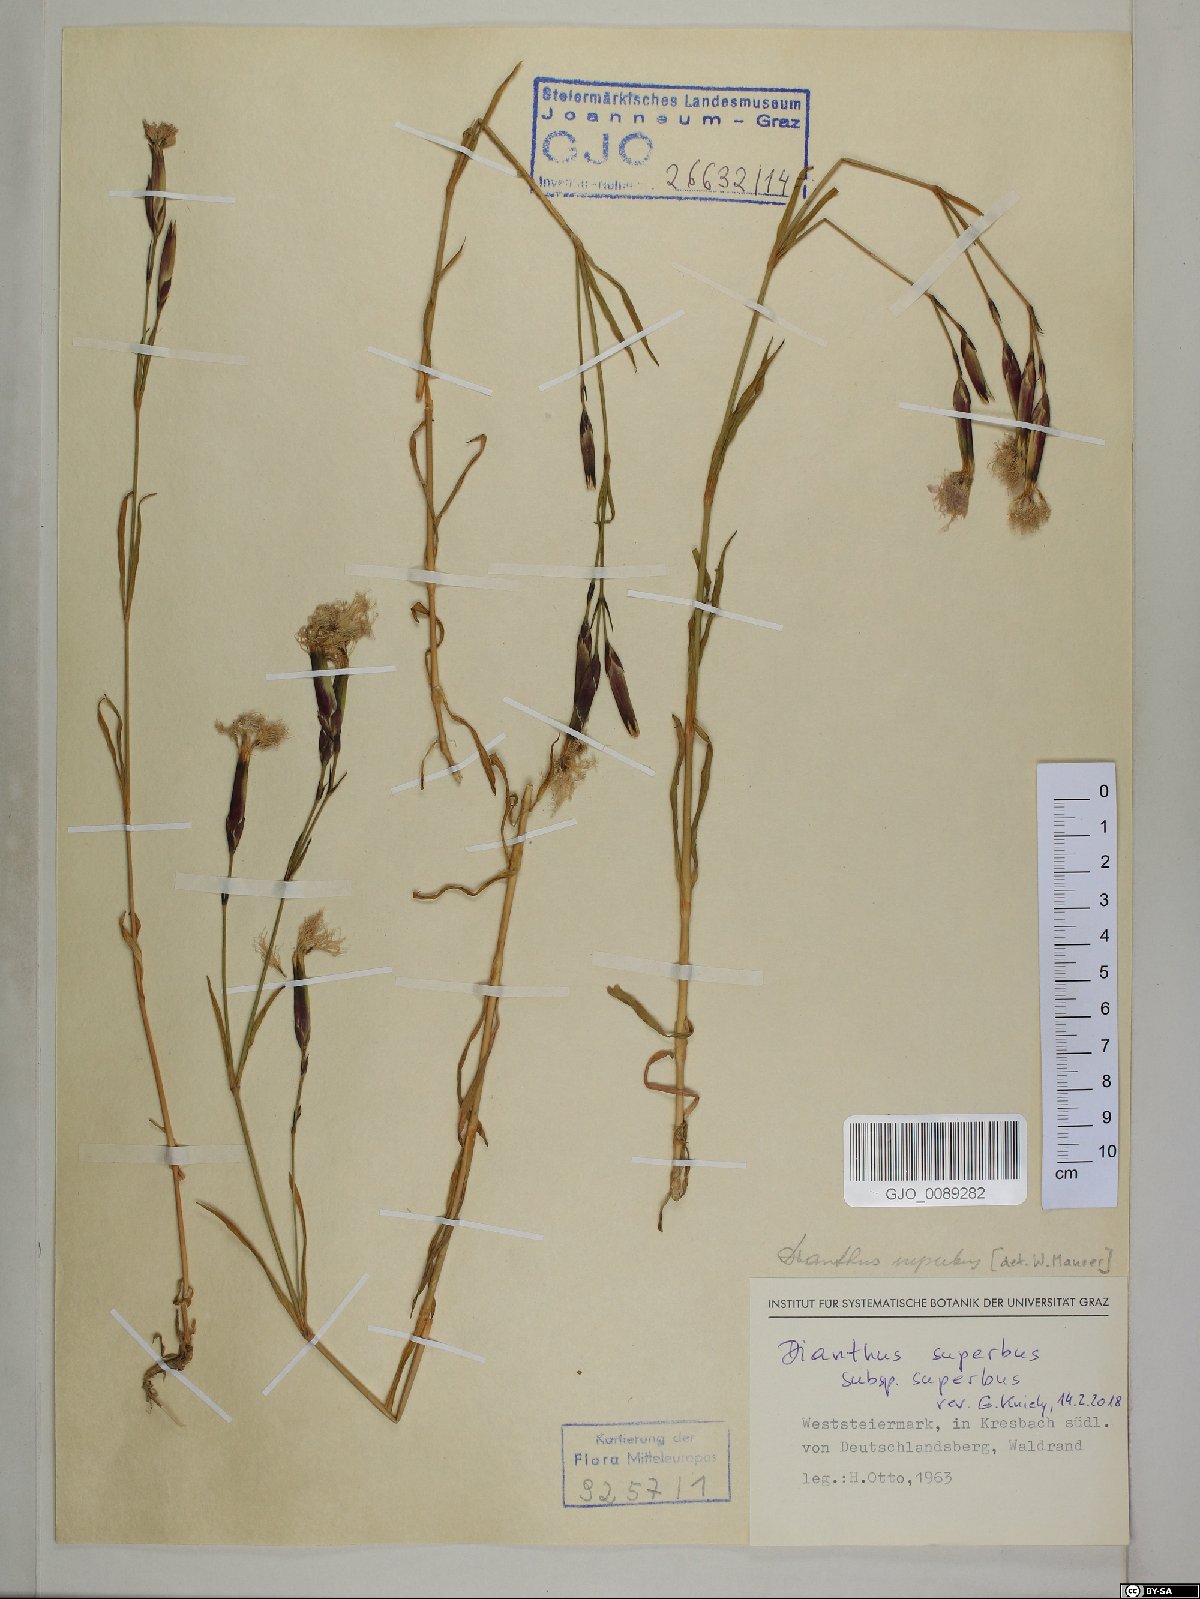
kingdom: Plantae
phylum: Tracheophyta
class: Magnoliopsida
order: Caryophyllales
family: Caryophyllaceae
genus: Dianthus
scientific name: Dianthus superbus
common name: Fringed pink
